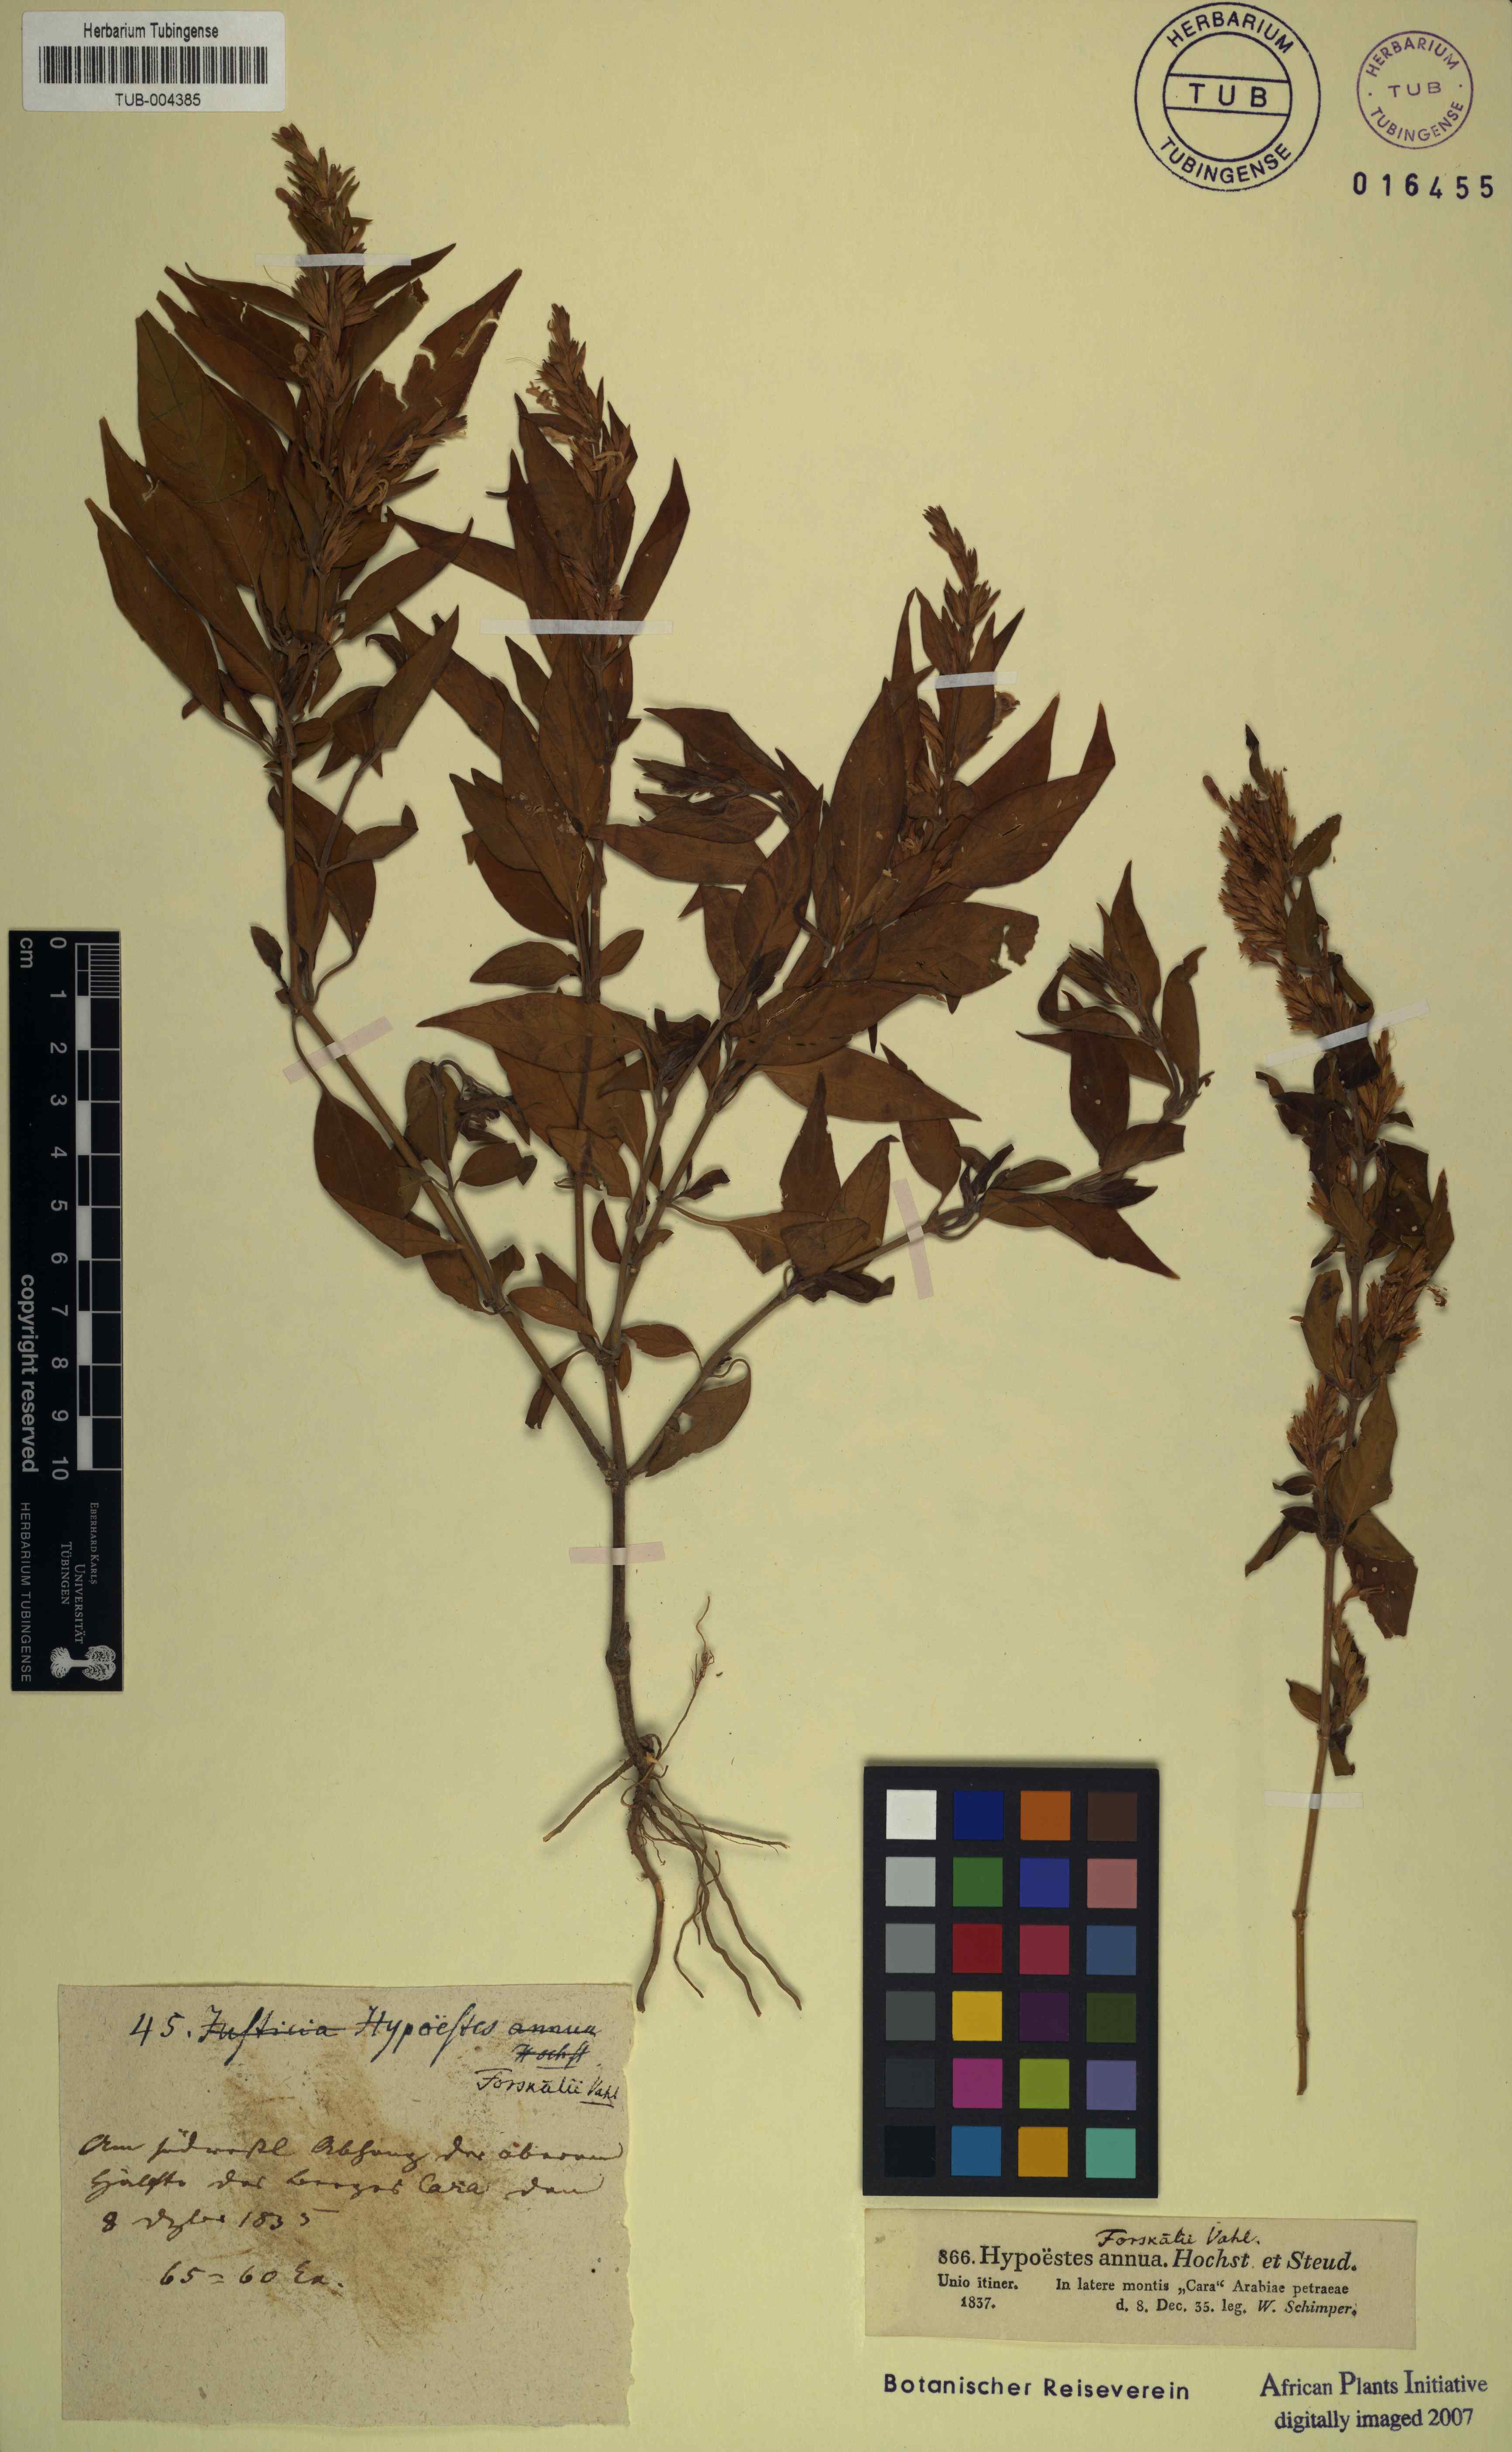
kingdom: Plantae
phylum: Tracheophyta
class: Magnoliopsida
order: Lamiales
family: Acanthaceae
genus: Hypoestes
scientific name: Hypoestes forskaolii
